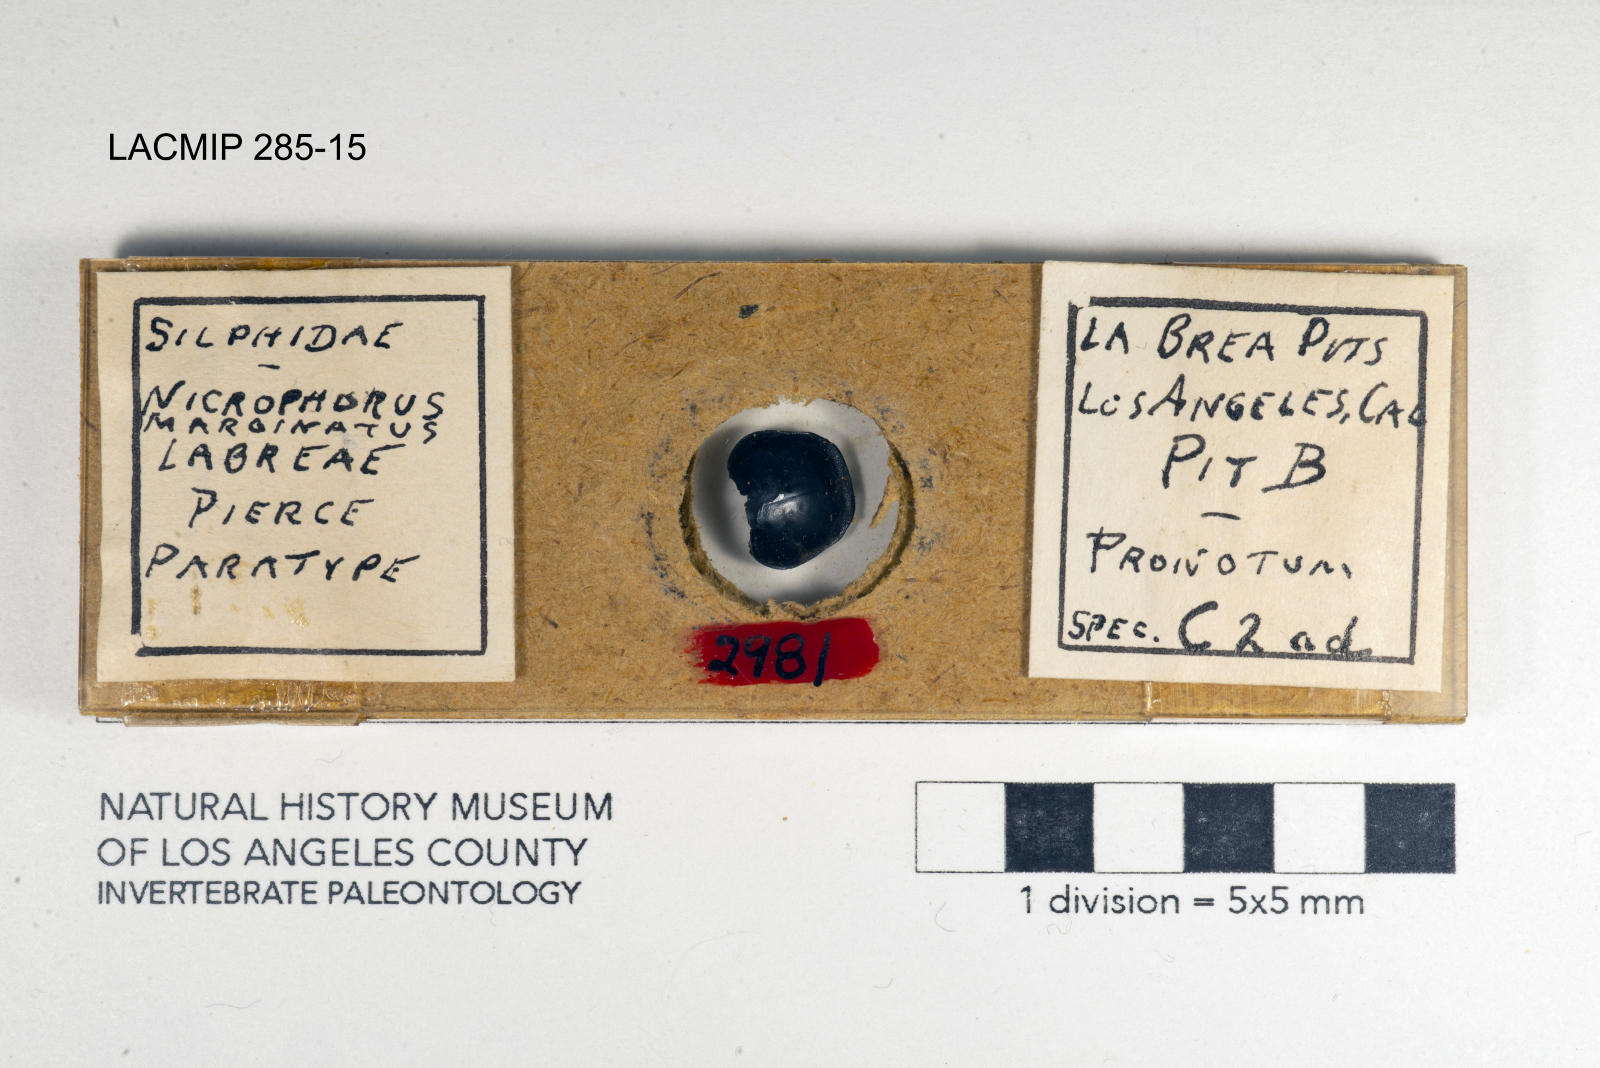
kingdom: Animalia
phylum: Arthropoda
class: Insecta
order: Coleoptera
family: Staphylinidae
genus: Nicrophorus
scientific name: Nicrophorus marginatus
